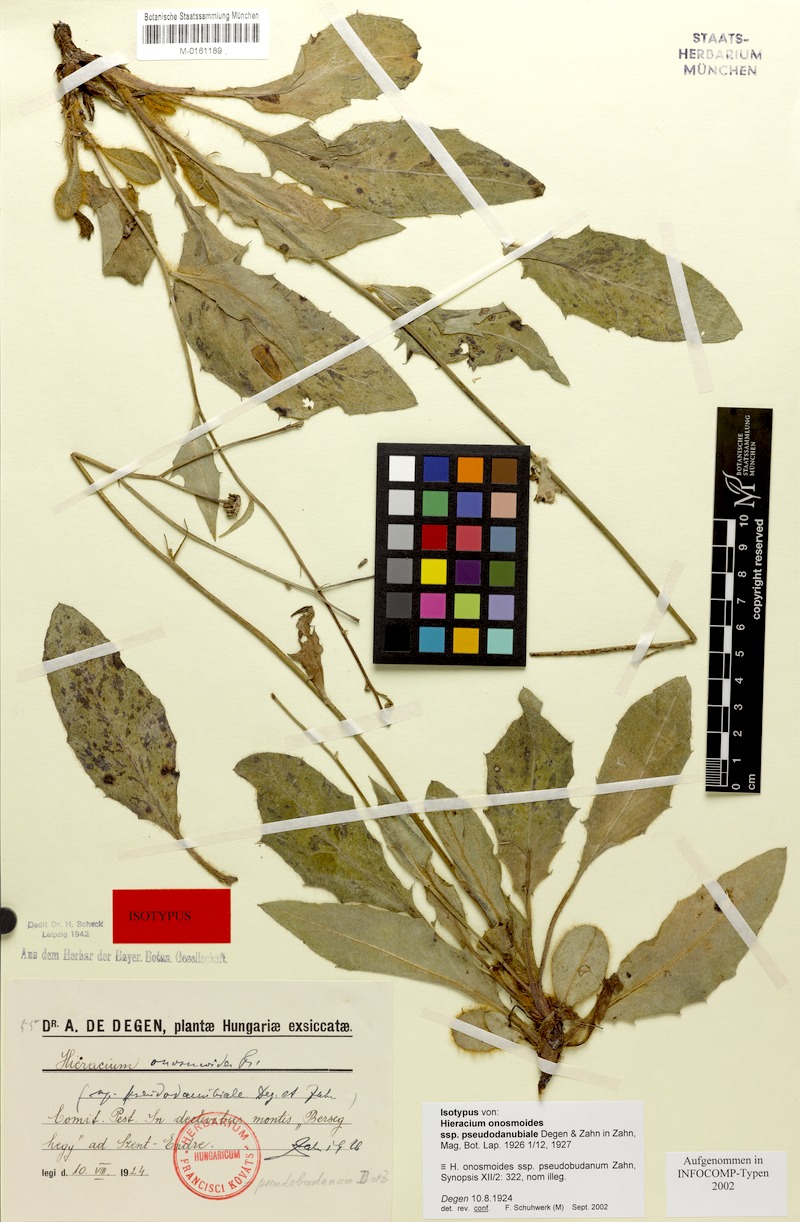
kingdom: Plantae
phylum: Tracheophyta
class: Magnoliopsida
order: Asterales
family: Asteraceae
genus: Hieracium
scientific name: Hieracium onosmoides
